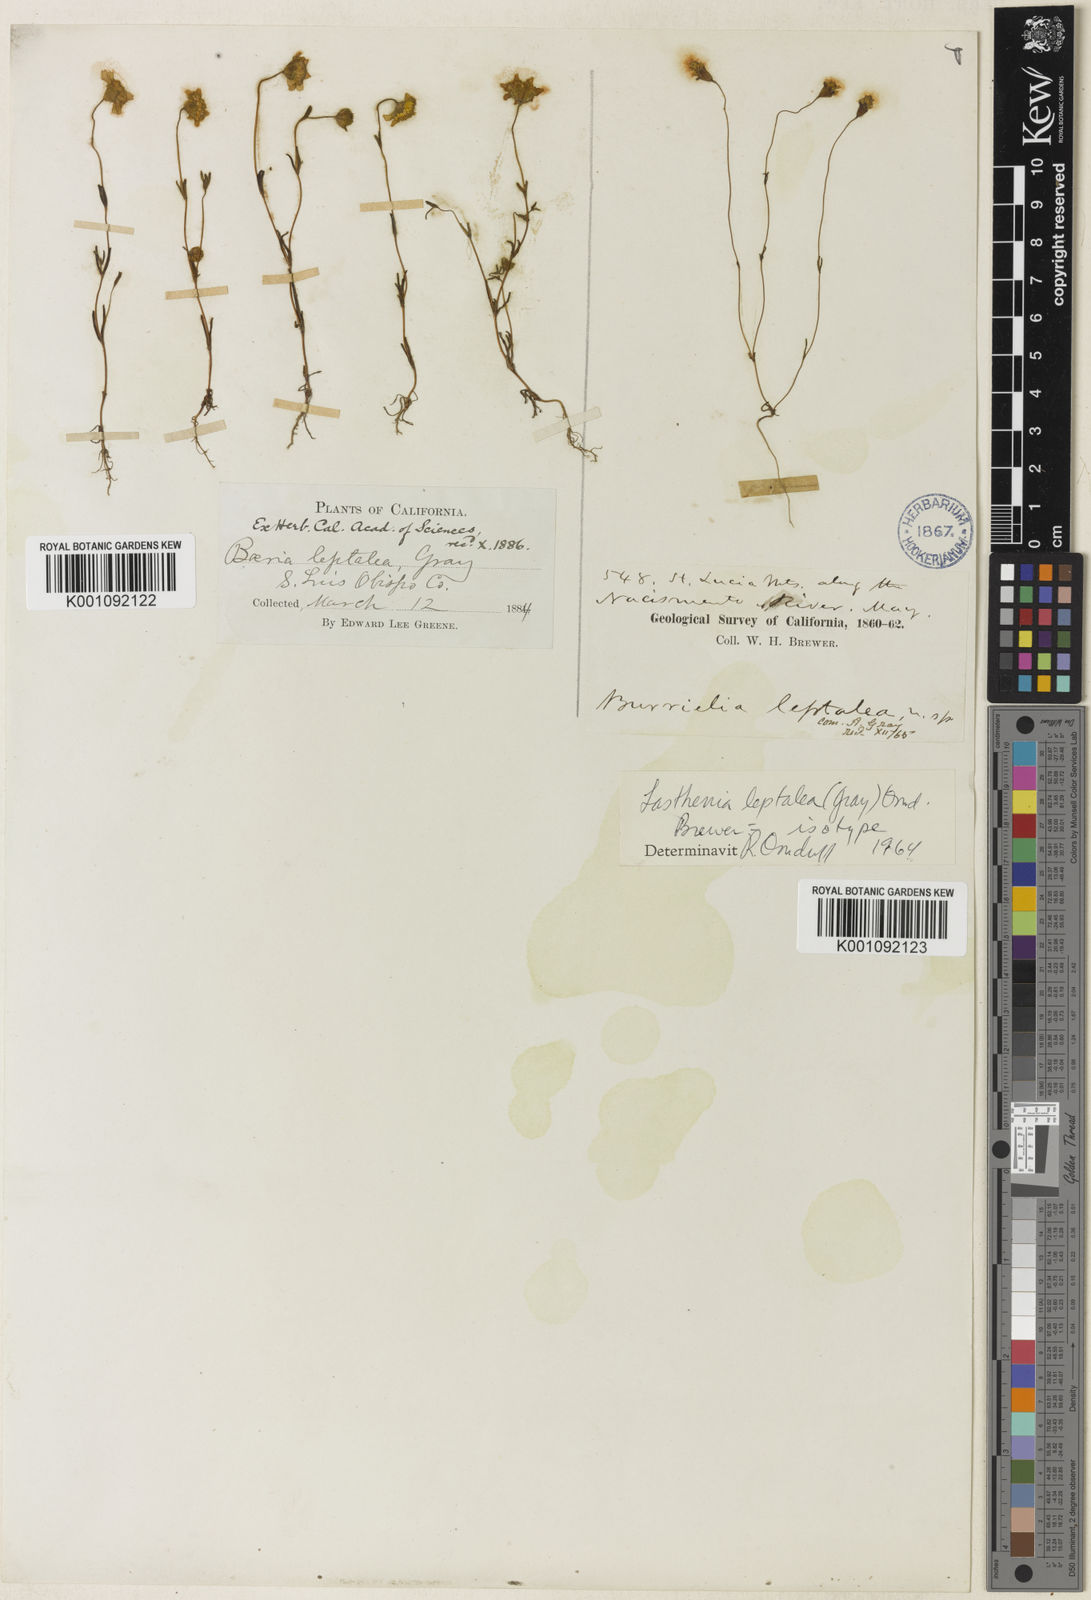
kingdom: Plantae
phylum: Tracheophyta
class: Magnoliopsida
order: Asterales
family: Asteraceae
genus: Lasthenia
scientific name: Lasthenia leptalea
